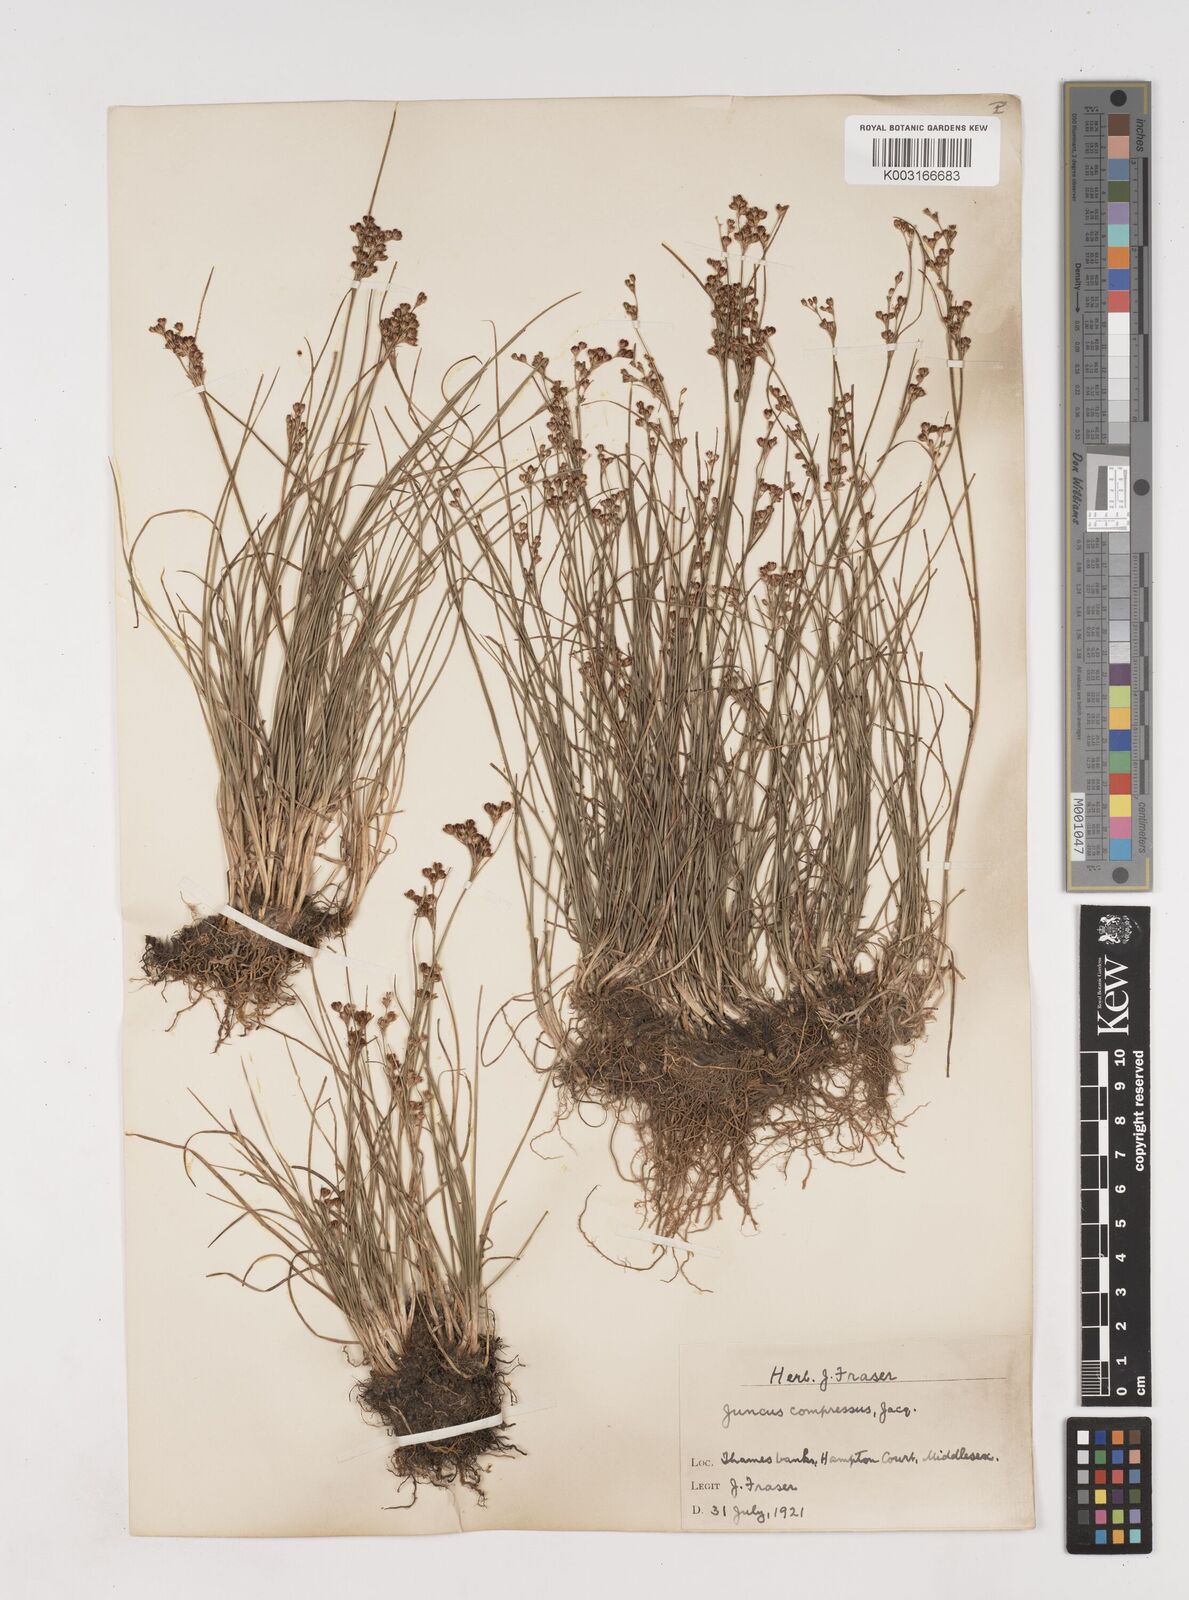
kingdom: Plantae
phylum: Tracheophyta
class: Liliopsida
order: Poales
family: Juncaceae
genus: Juncus
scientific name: Juncus compressus
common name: Round-fruited rush
